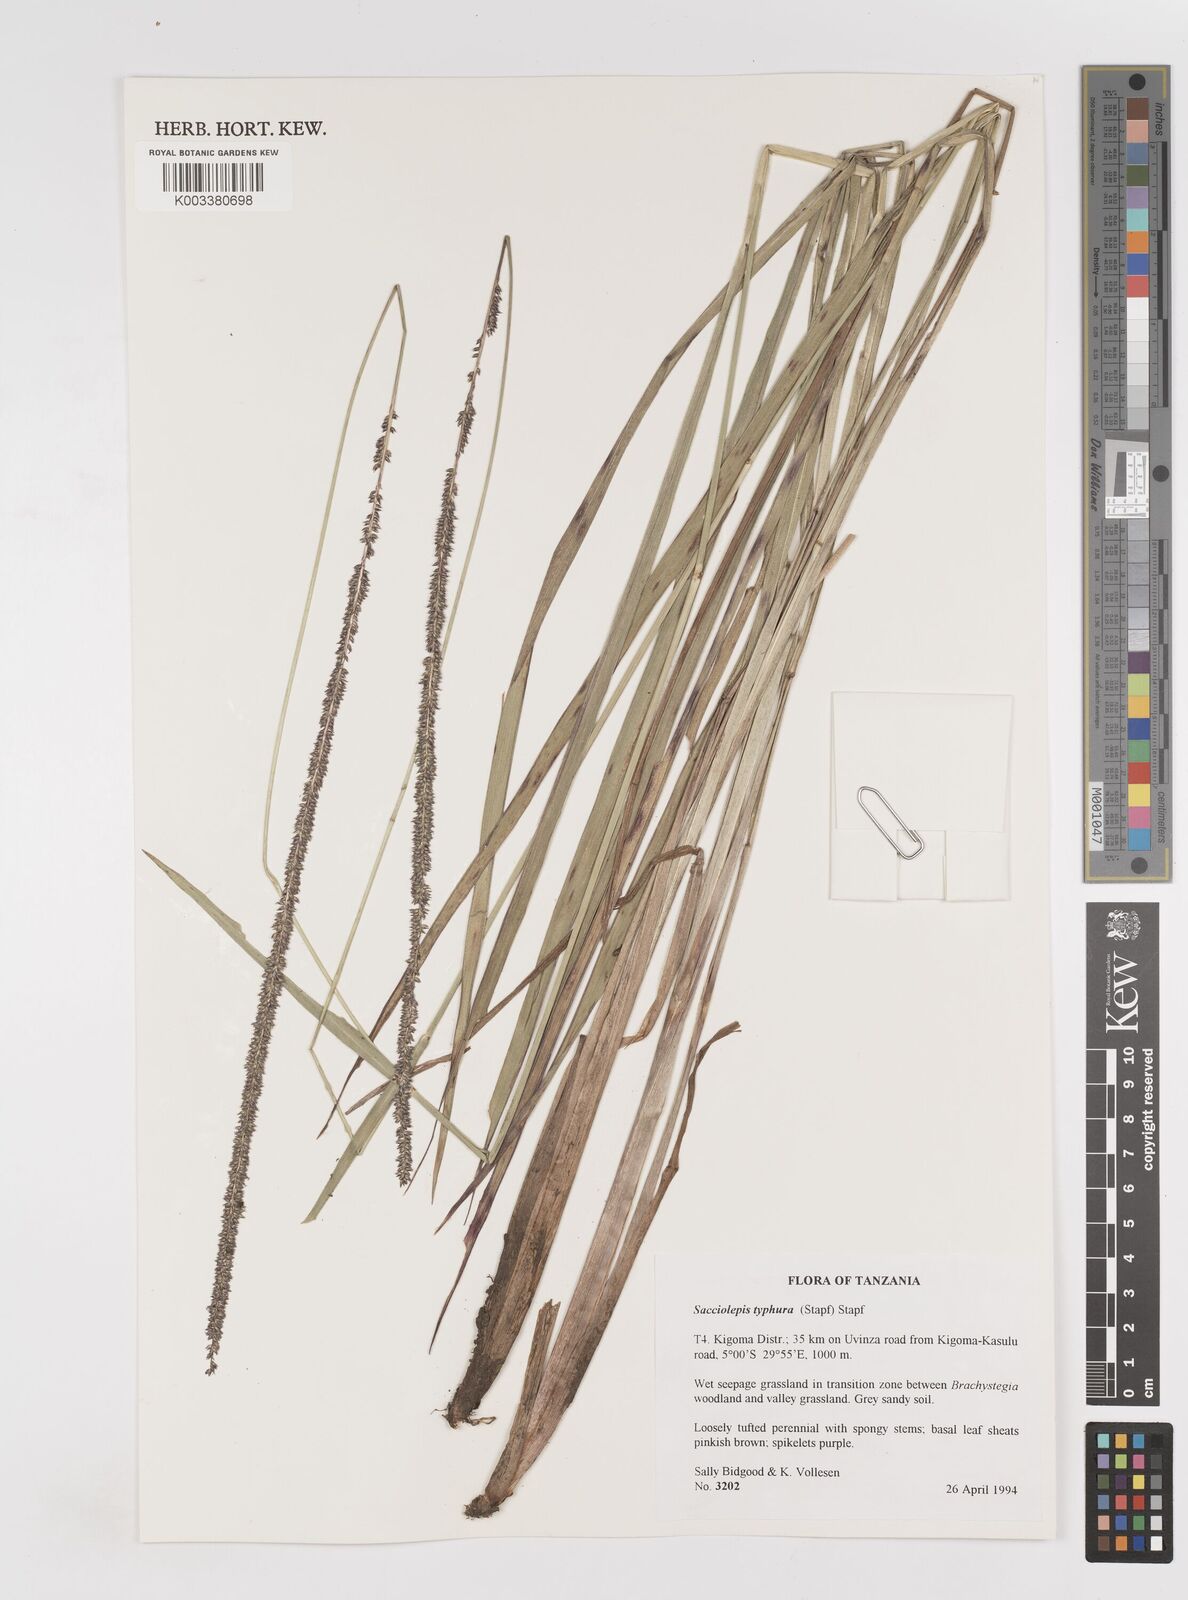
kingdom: Plantae
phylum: Tracheophyta
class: Liliopsida
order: Poales
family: Poaceae
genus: Sacciolepis
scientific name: Sacciolepis typhura
